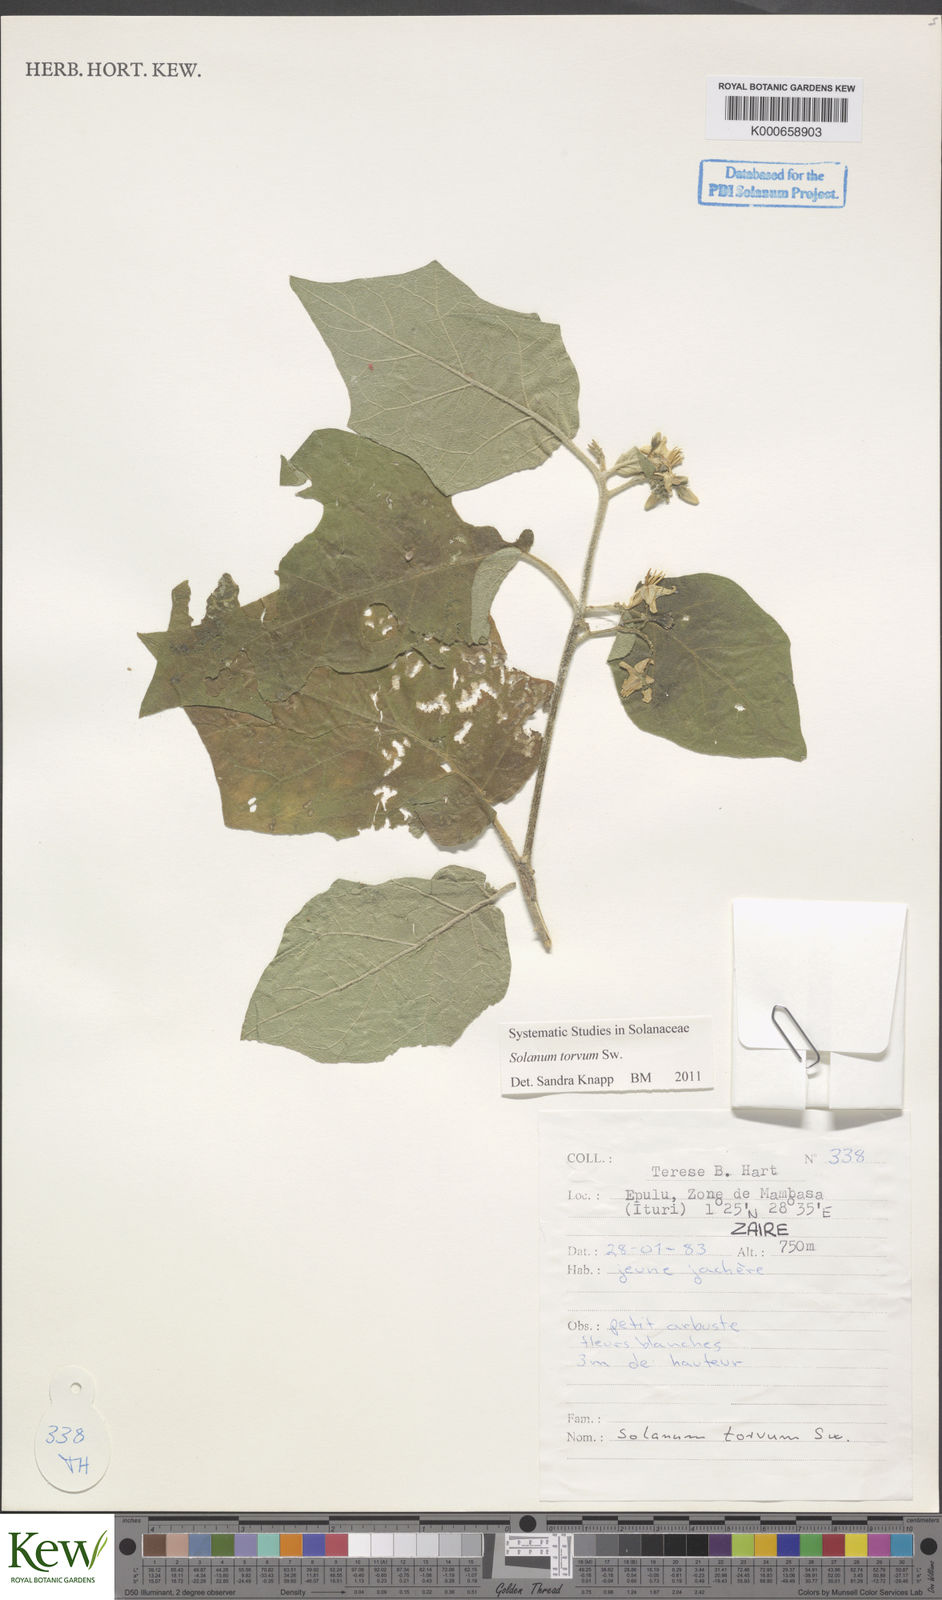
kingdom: Plantae
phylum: Tracheophyta
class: Magnoliopsida
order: Solanales
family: Solanaceae
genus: Solanum
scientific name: Solanum torvum
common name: Turkey berry
